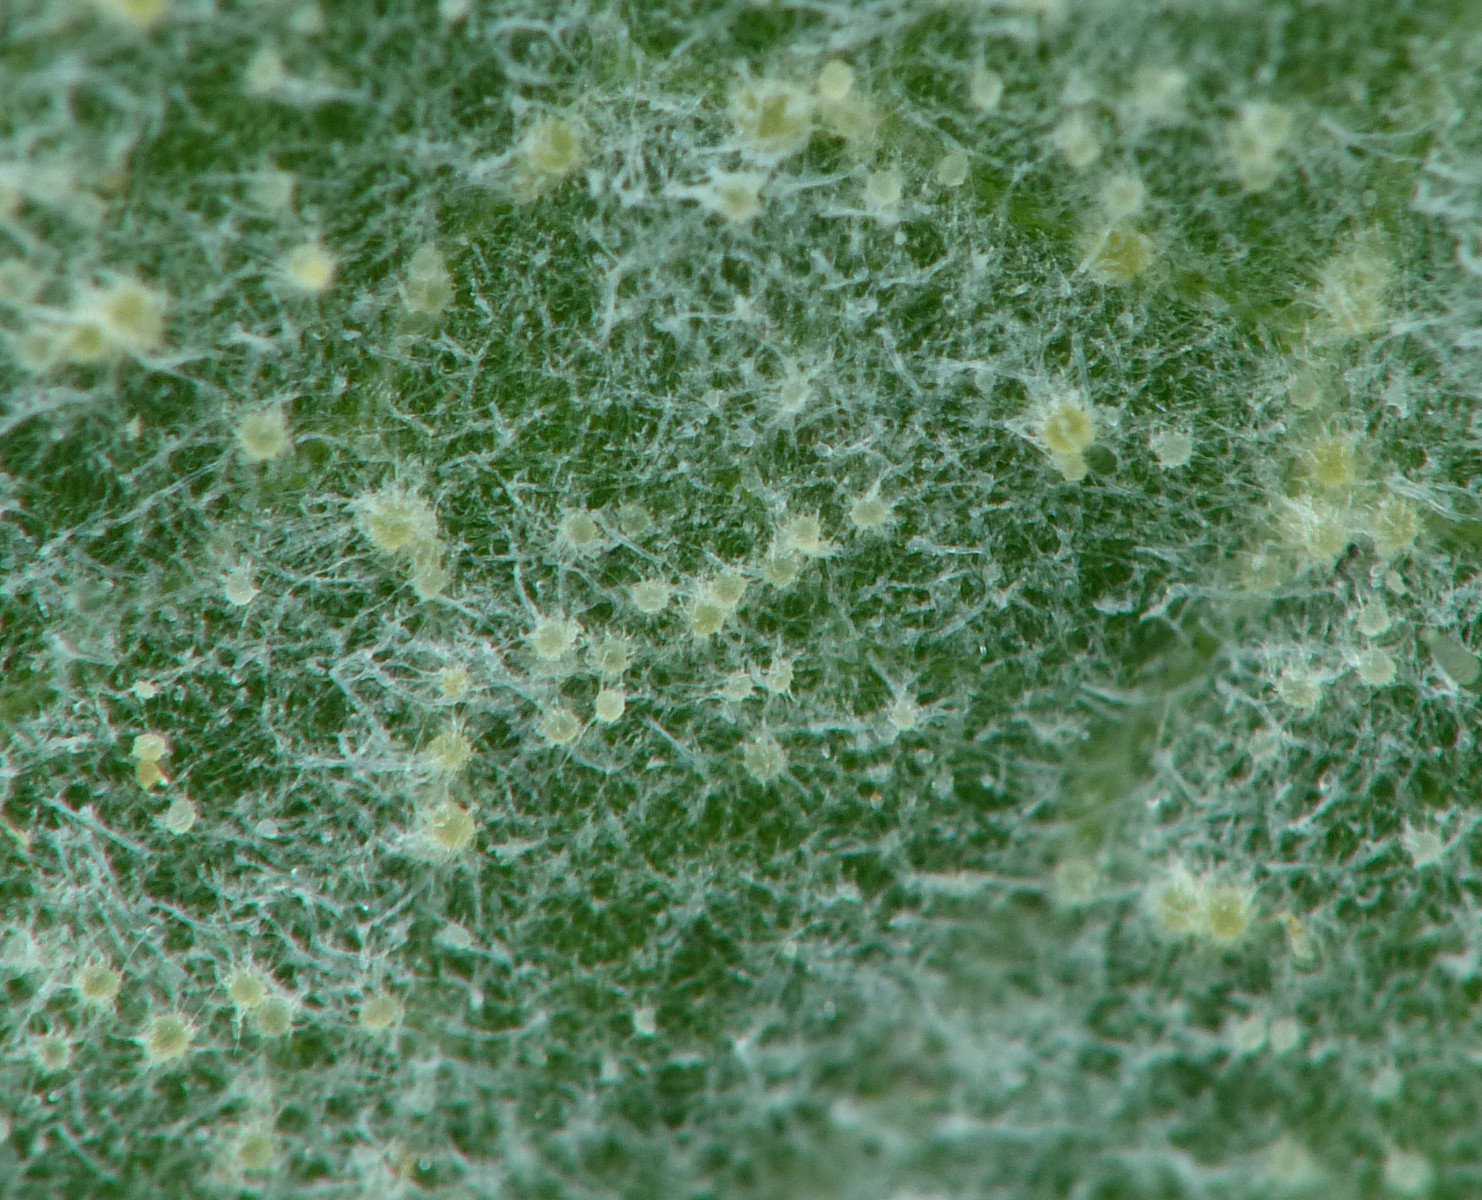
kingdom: Fungi
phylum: Ascomycota
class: Leotiomycetes
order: Helotiales
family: Erysiphaceae
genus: Golovinomyces
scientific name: Golovinomyces
